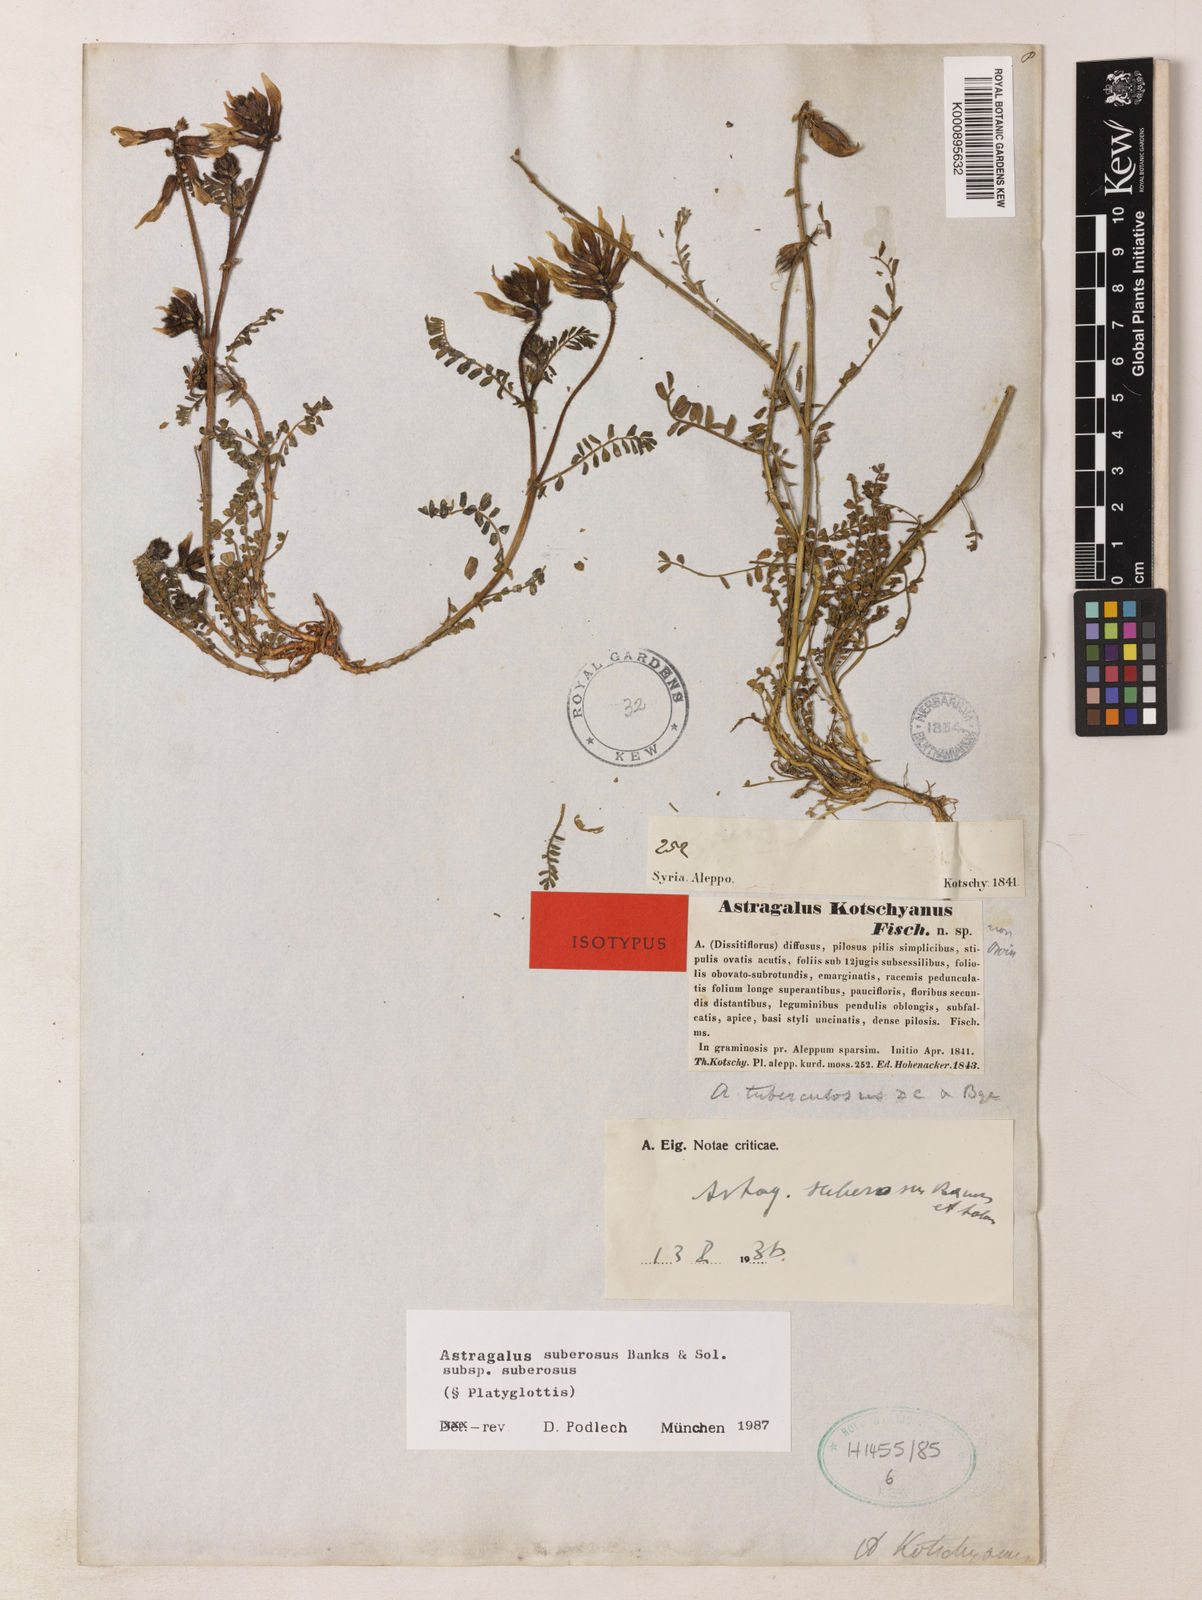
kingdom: Plantae
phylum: Tracheophyta
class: Magnoliopsida
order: Fabales
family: Fabaceae
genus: Astragalus
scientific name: Astragalus suberosus
